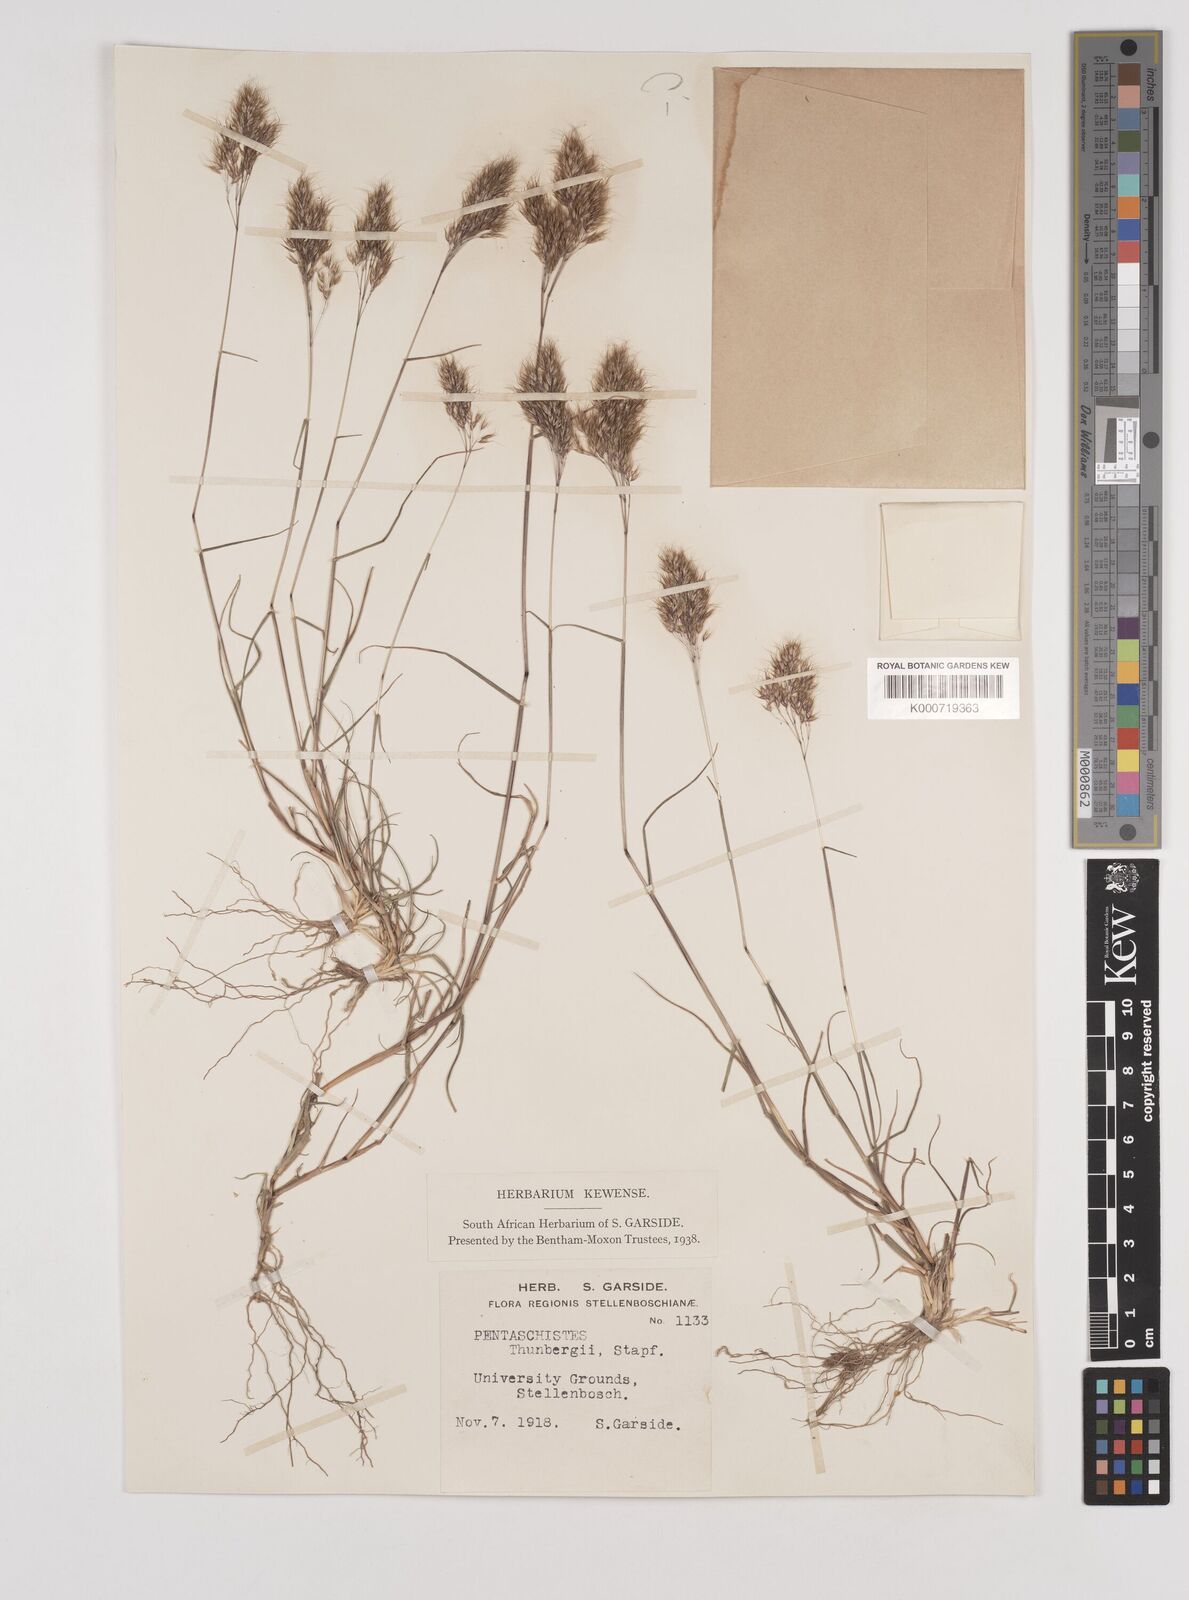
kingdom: Plantae
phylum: Tracheophyta
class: Liliopsida
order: Poales
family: Poaceae
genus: Pentameris
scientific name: Pentameris triseta
